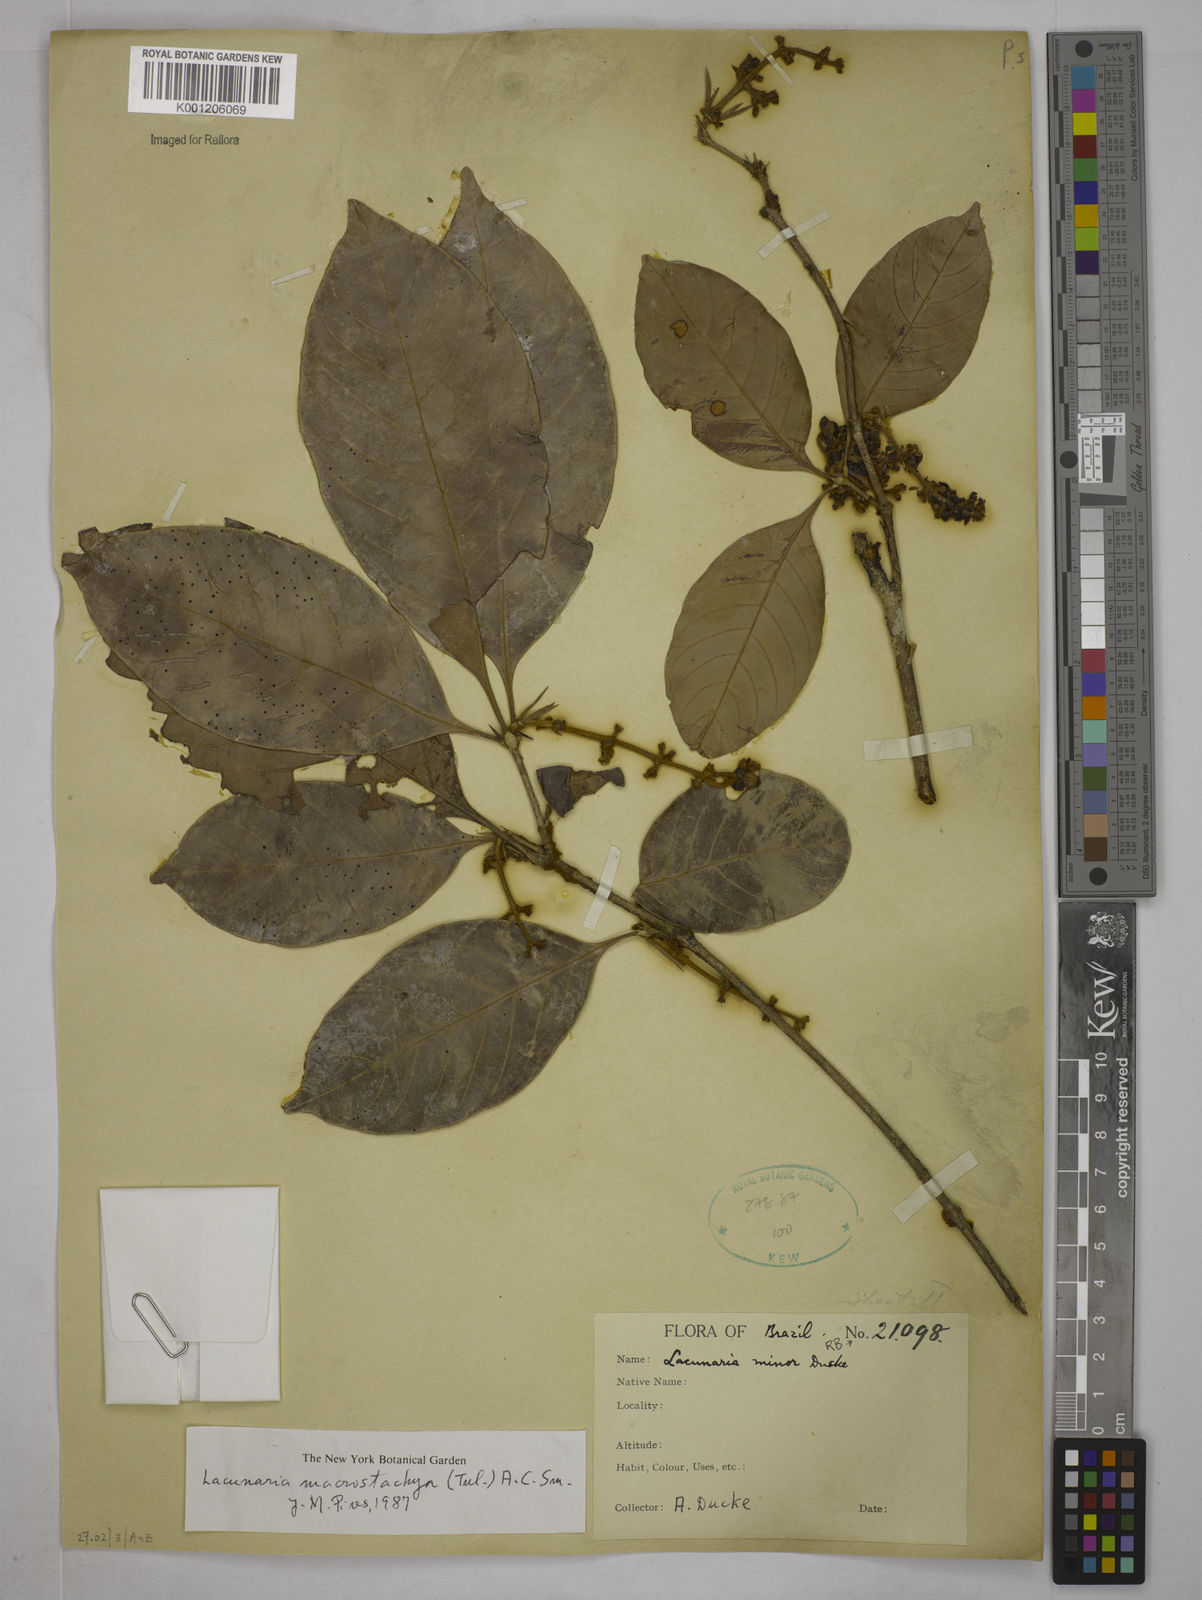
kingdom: Plantae
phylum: Tracheophyta
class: Magnoliopsida
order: Malpighiales
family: Quiinaceae
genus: Lacunaria
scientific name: Lacunaria macrostachya
